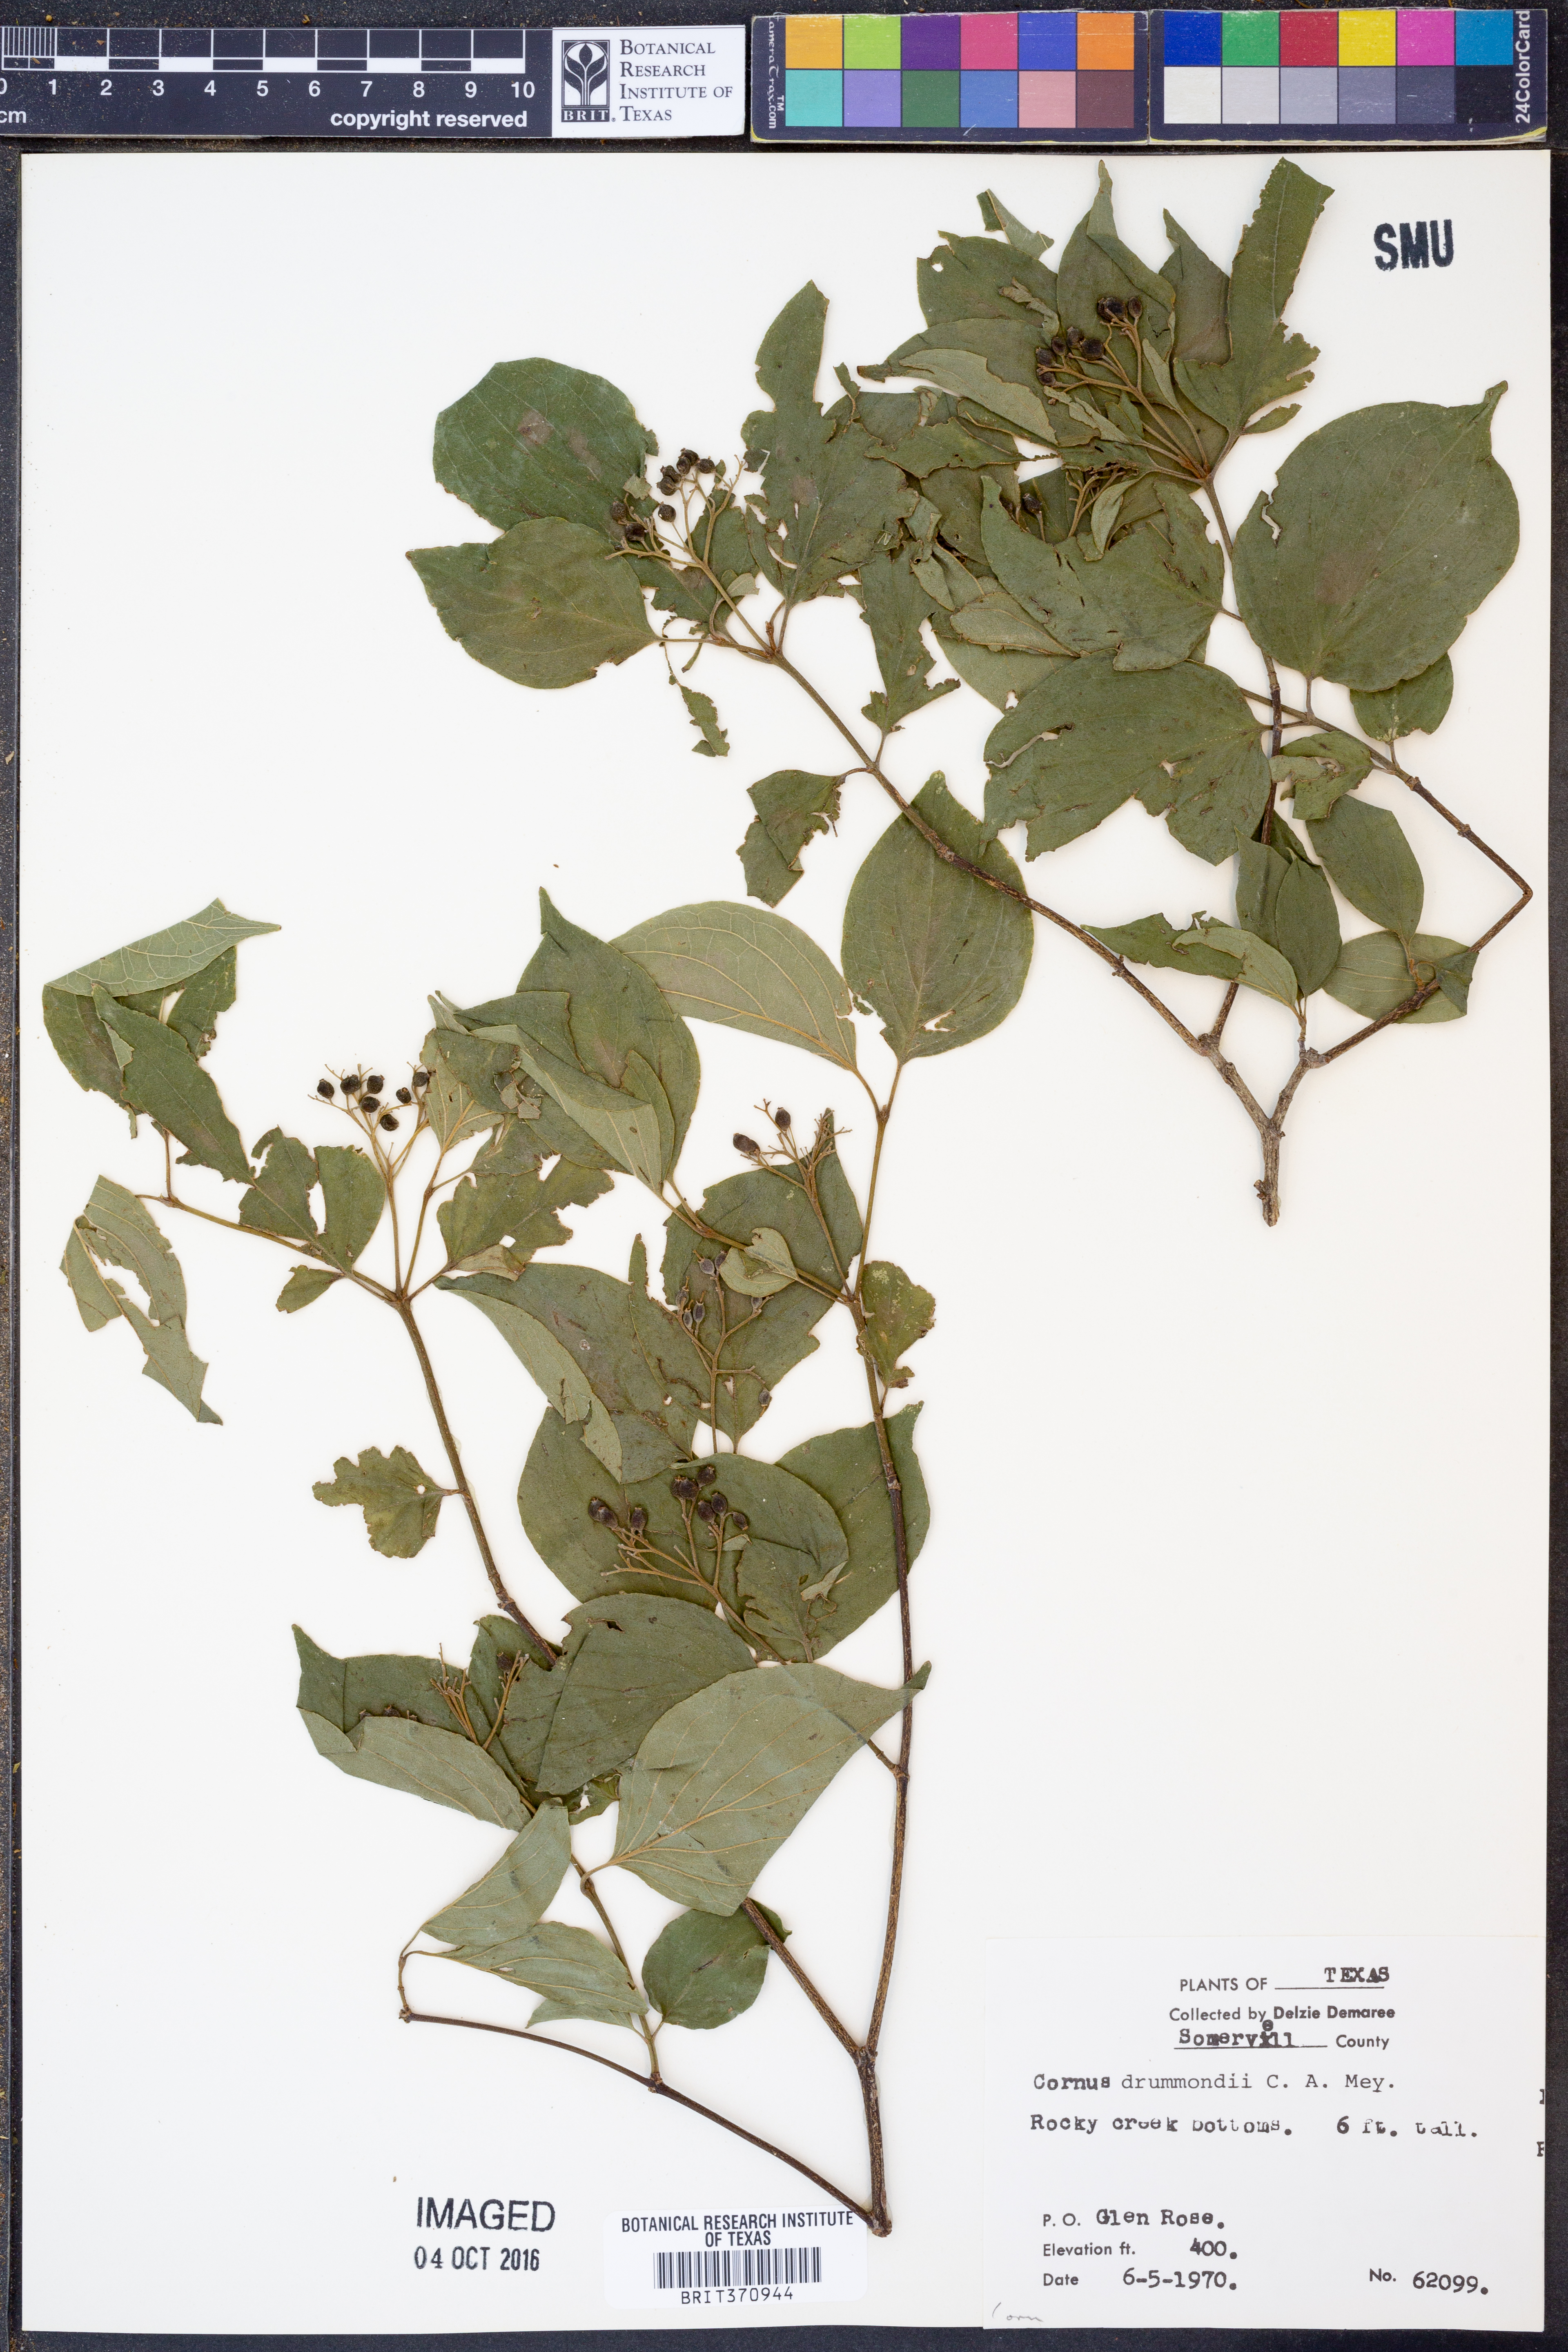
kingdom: Plantae
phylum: Tracheophyta
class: Magnoliopsida
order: Cornales
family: Cornaceae
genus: Cornus
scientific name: Cornus drummondii
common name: Rough-leaf dogwood
